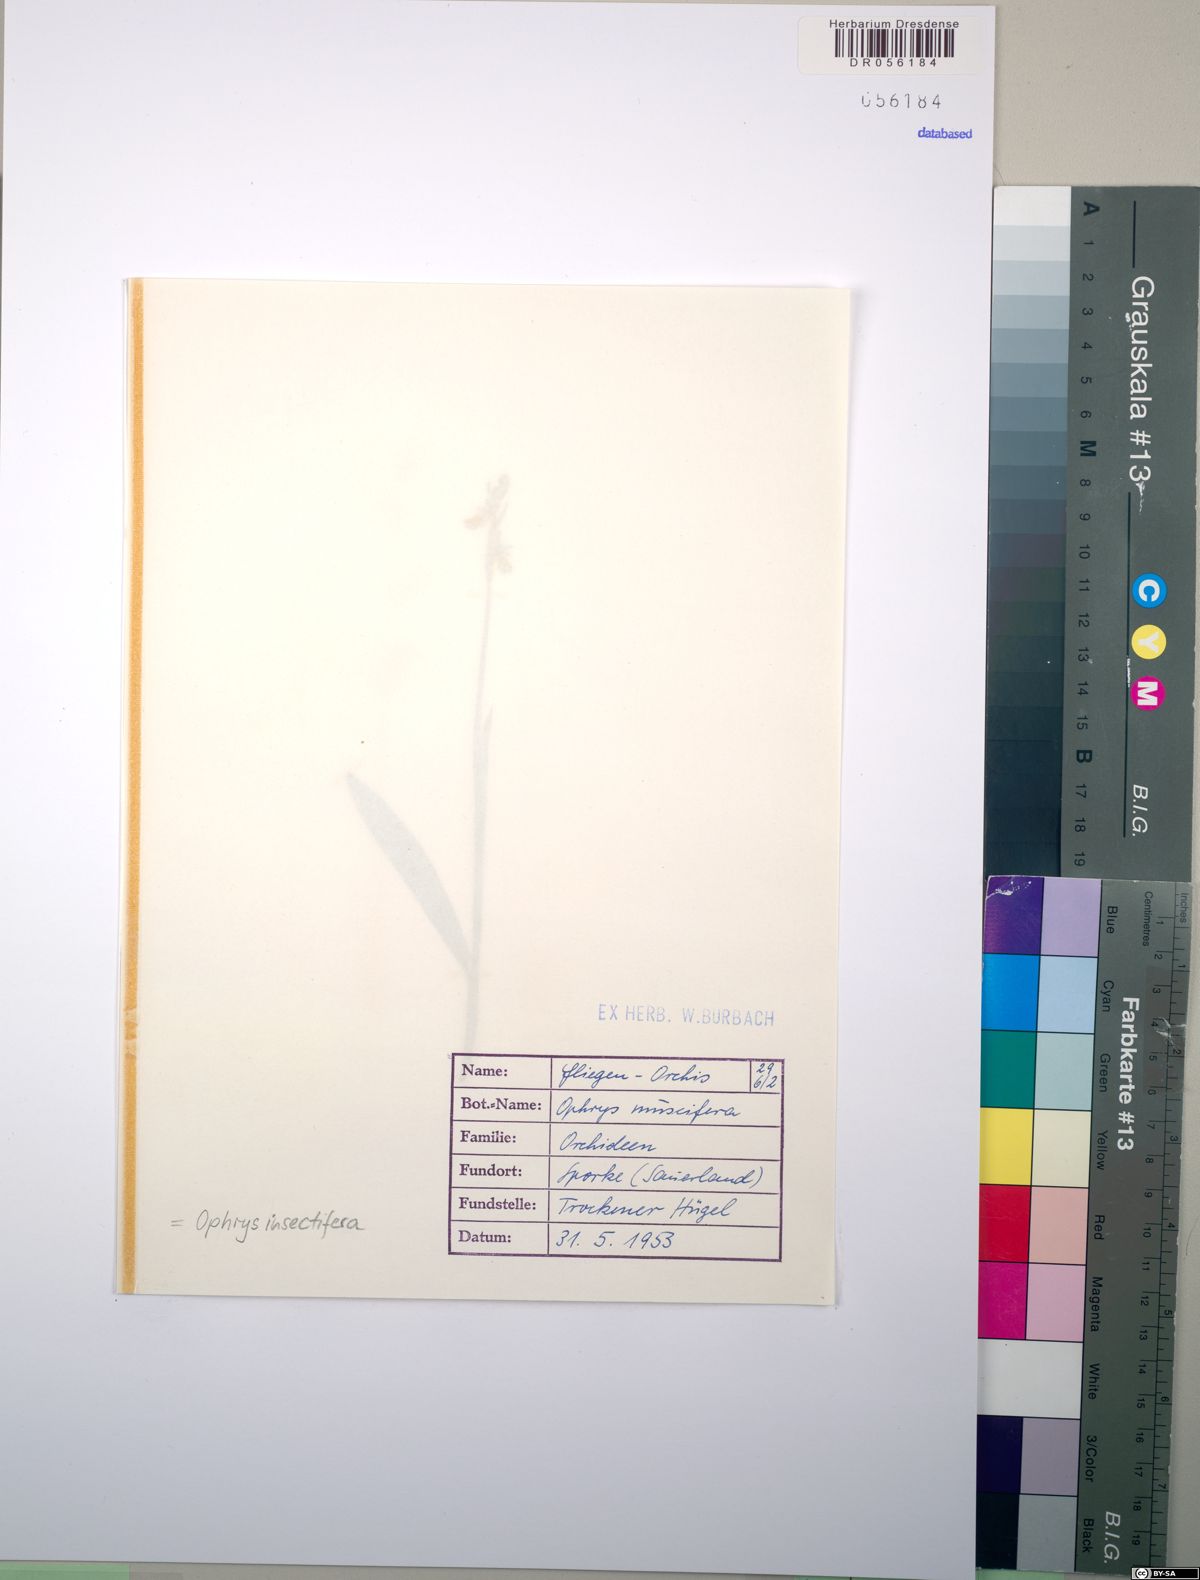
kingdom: Plantae
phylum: Tracheophyta
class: Liliopsida
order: Asparagales
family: Orchidaceae
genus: Ophrys
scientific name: Ophrys insectifera
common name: Fly orchid
